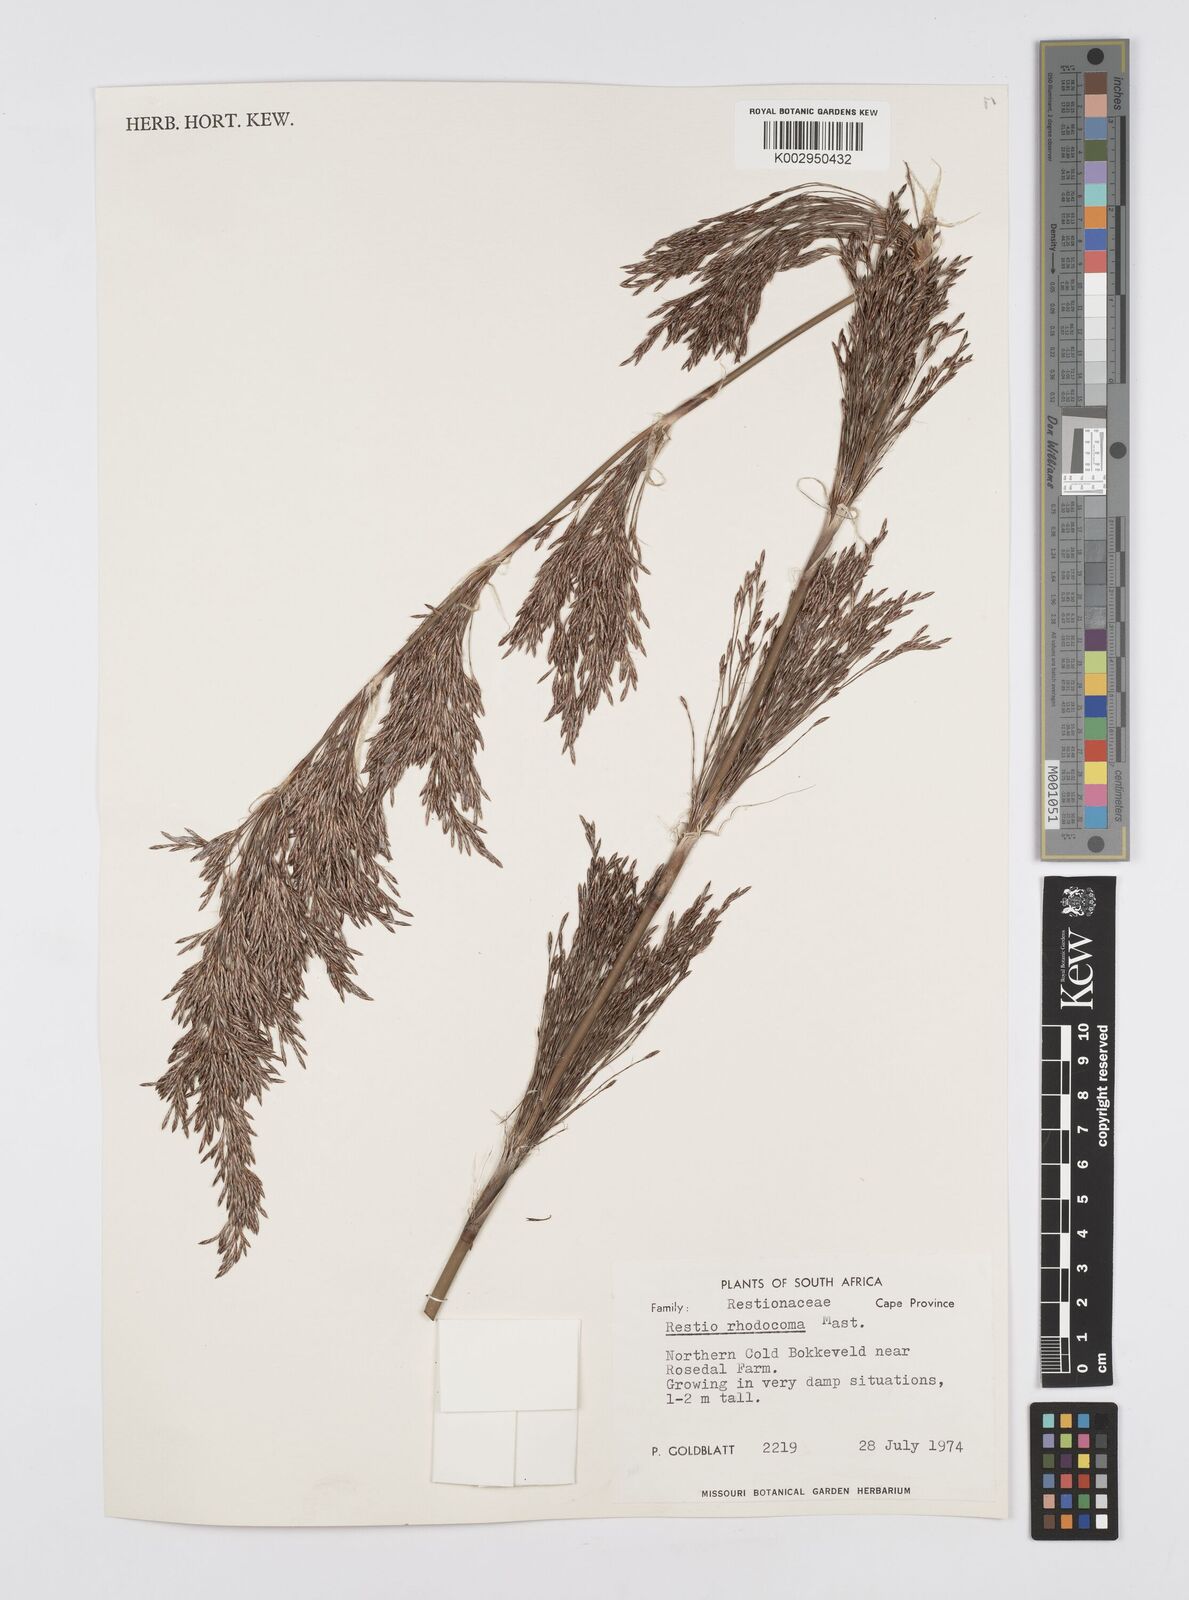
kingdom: Plantae
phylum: Tracheophyta
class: Liliopsida
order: Poales
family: Restionaceae
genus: Rhodocoma
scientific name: Rhodocoma capensis
